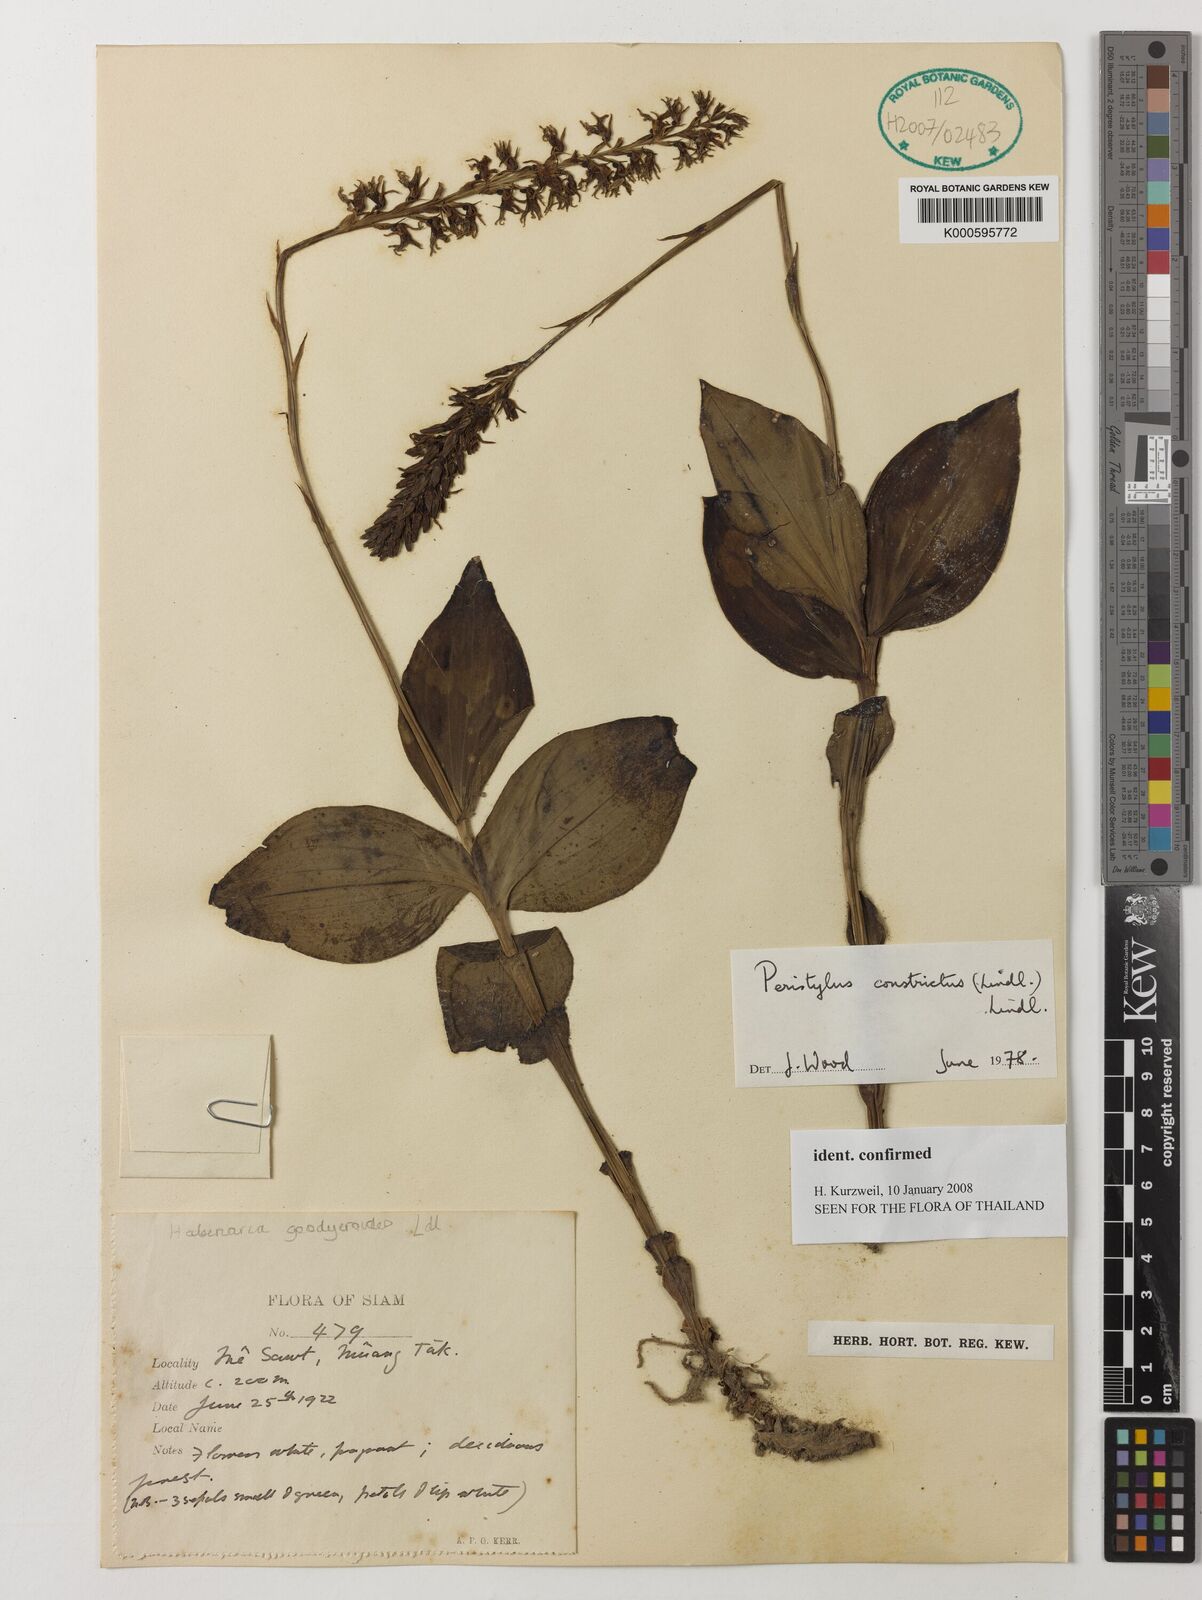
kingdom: Plantae
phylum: Tracheophyta
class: Liliopsida
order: Asparagales
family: Orchidaceae
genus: Peristylus
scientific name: Peristylus constrictus
